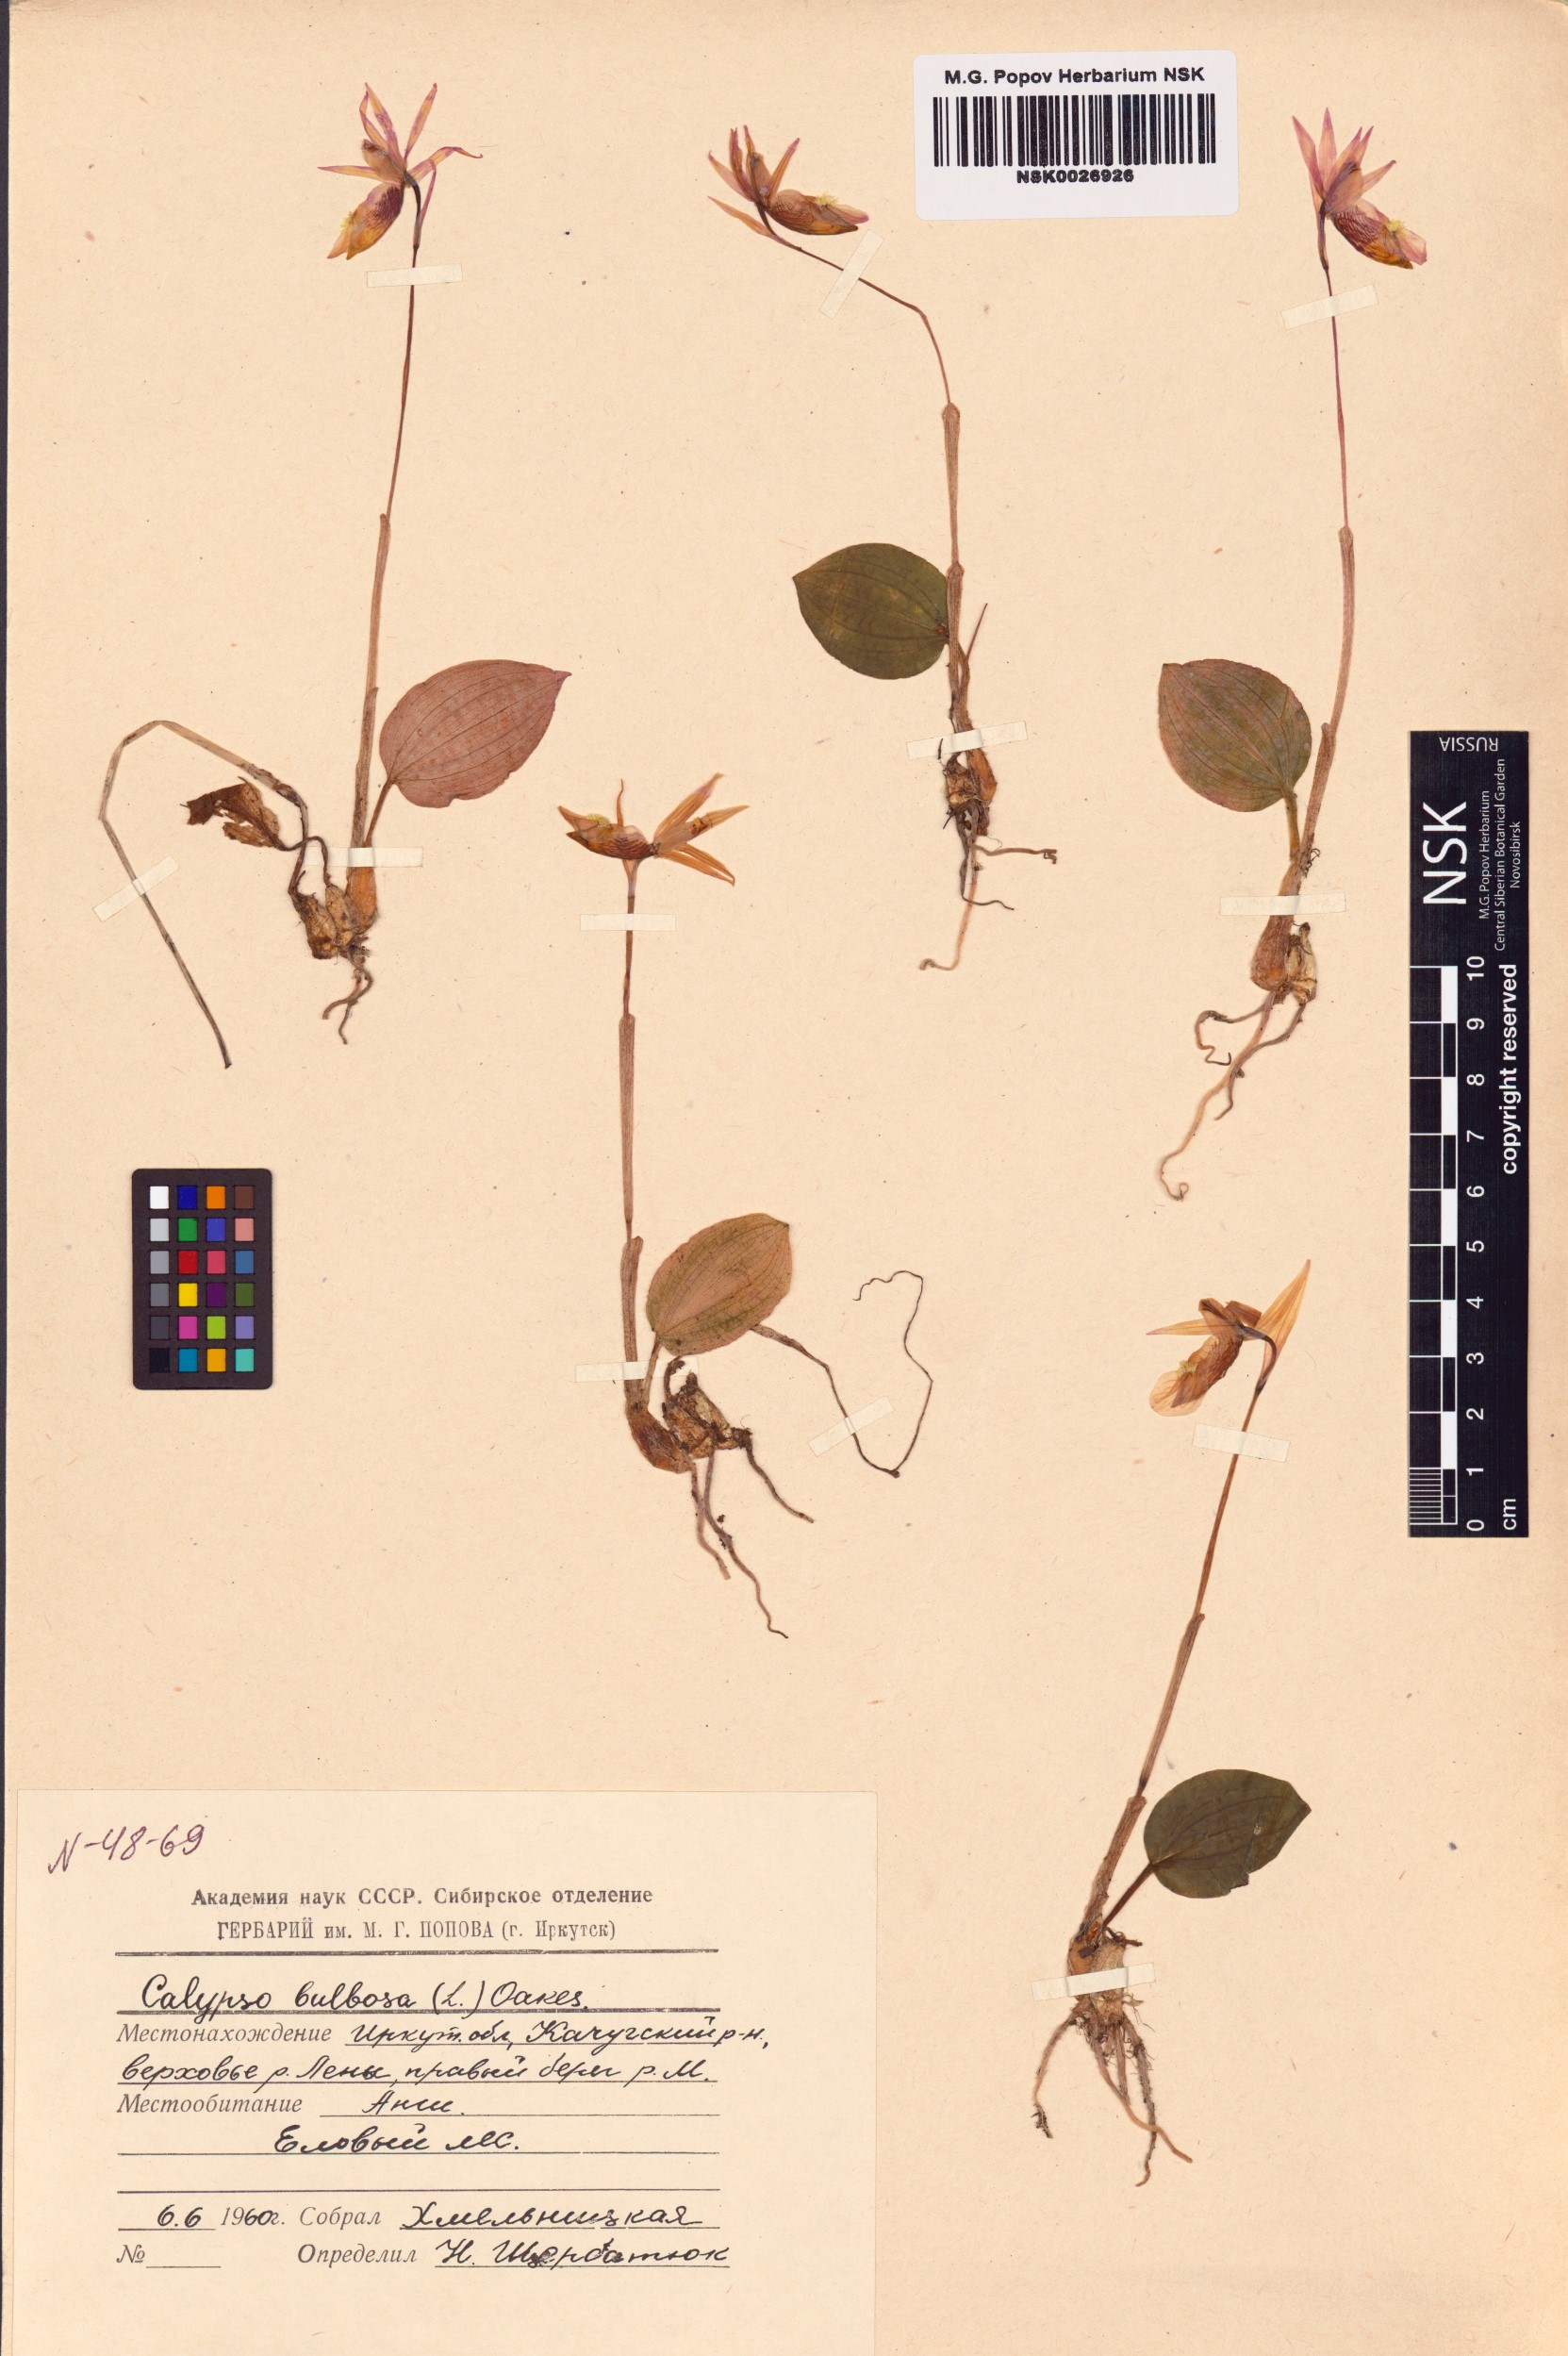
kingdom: Plantae
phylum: Tracheophyta
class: Liliopsida
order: Asparagales
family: Orchidaceae
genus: Calypso
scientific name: Calypso bulbosa
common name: Calypso
